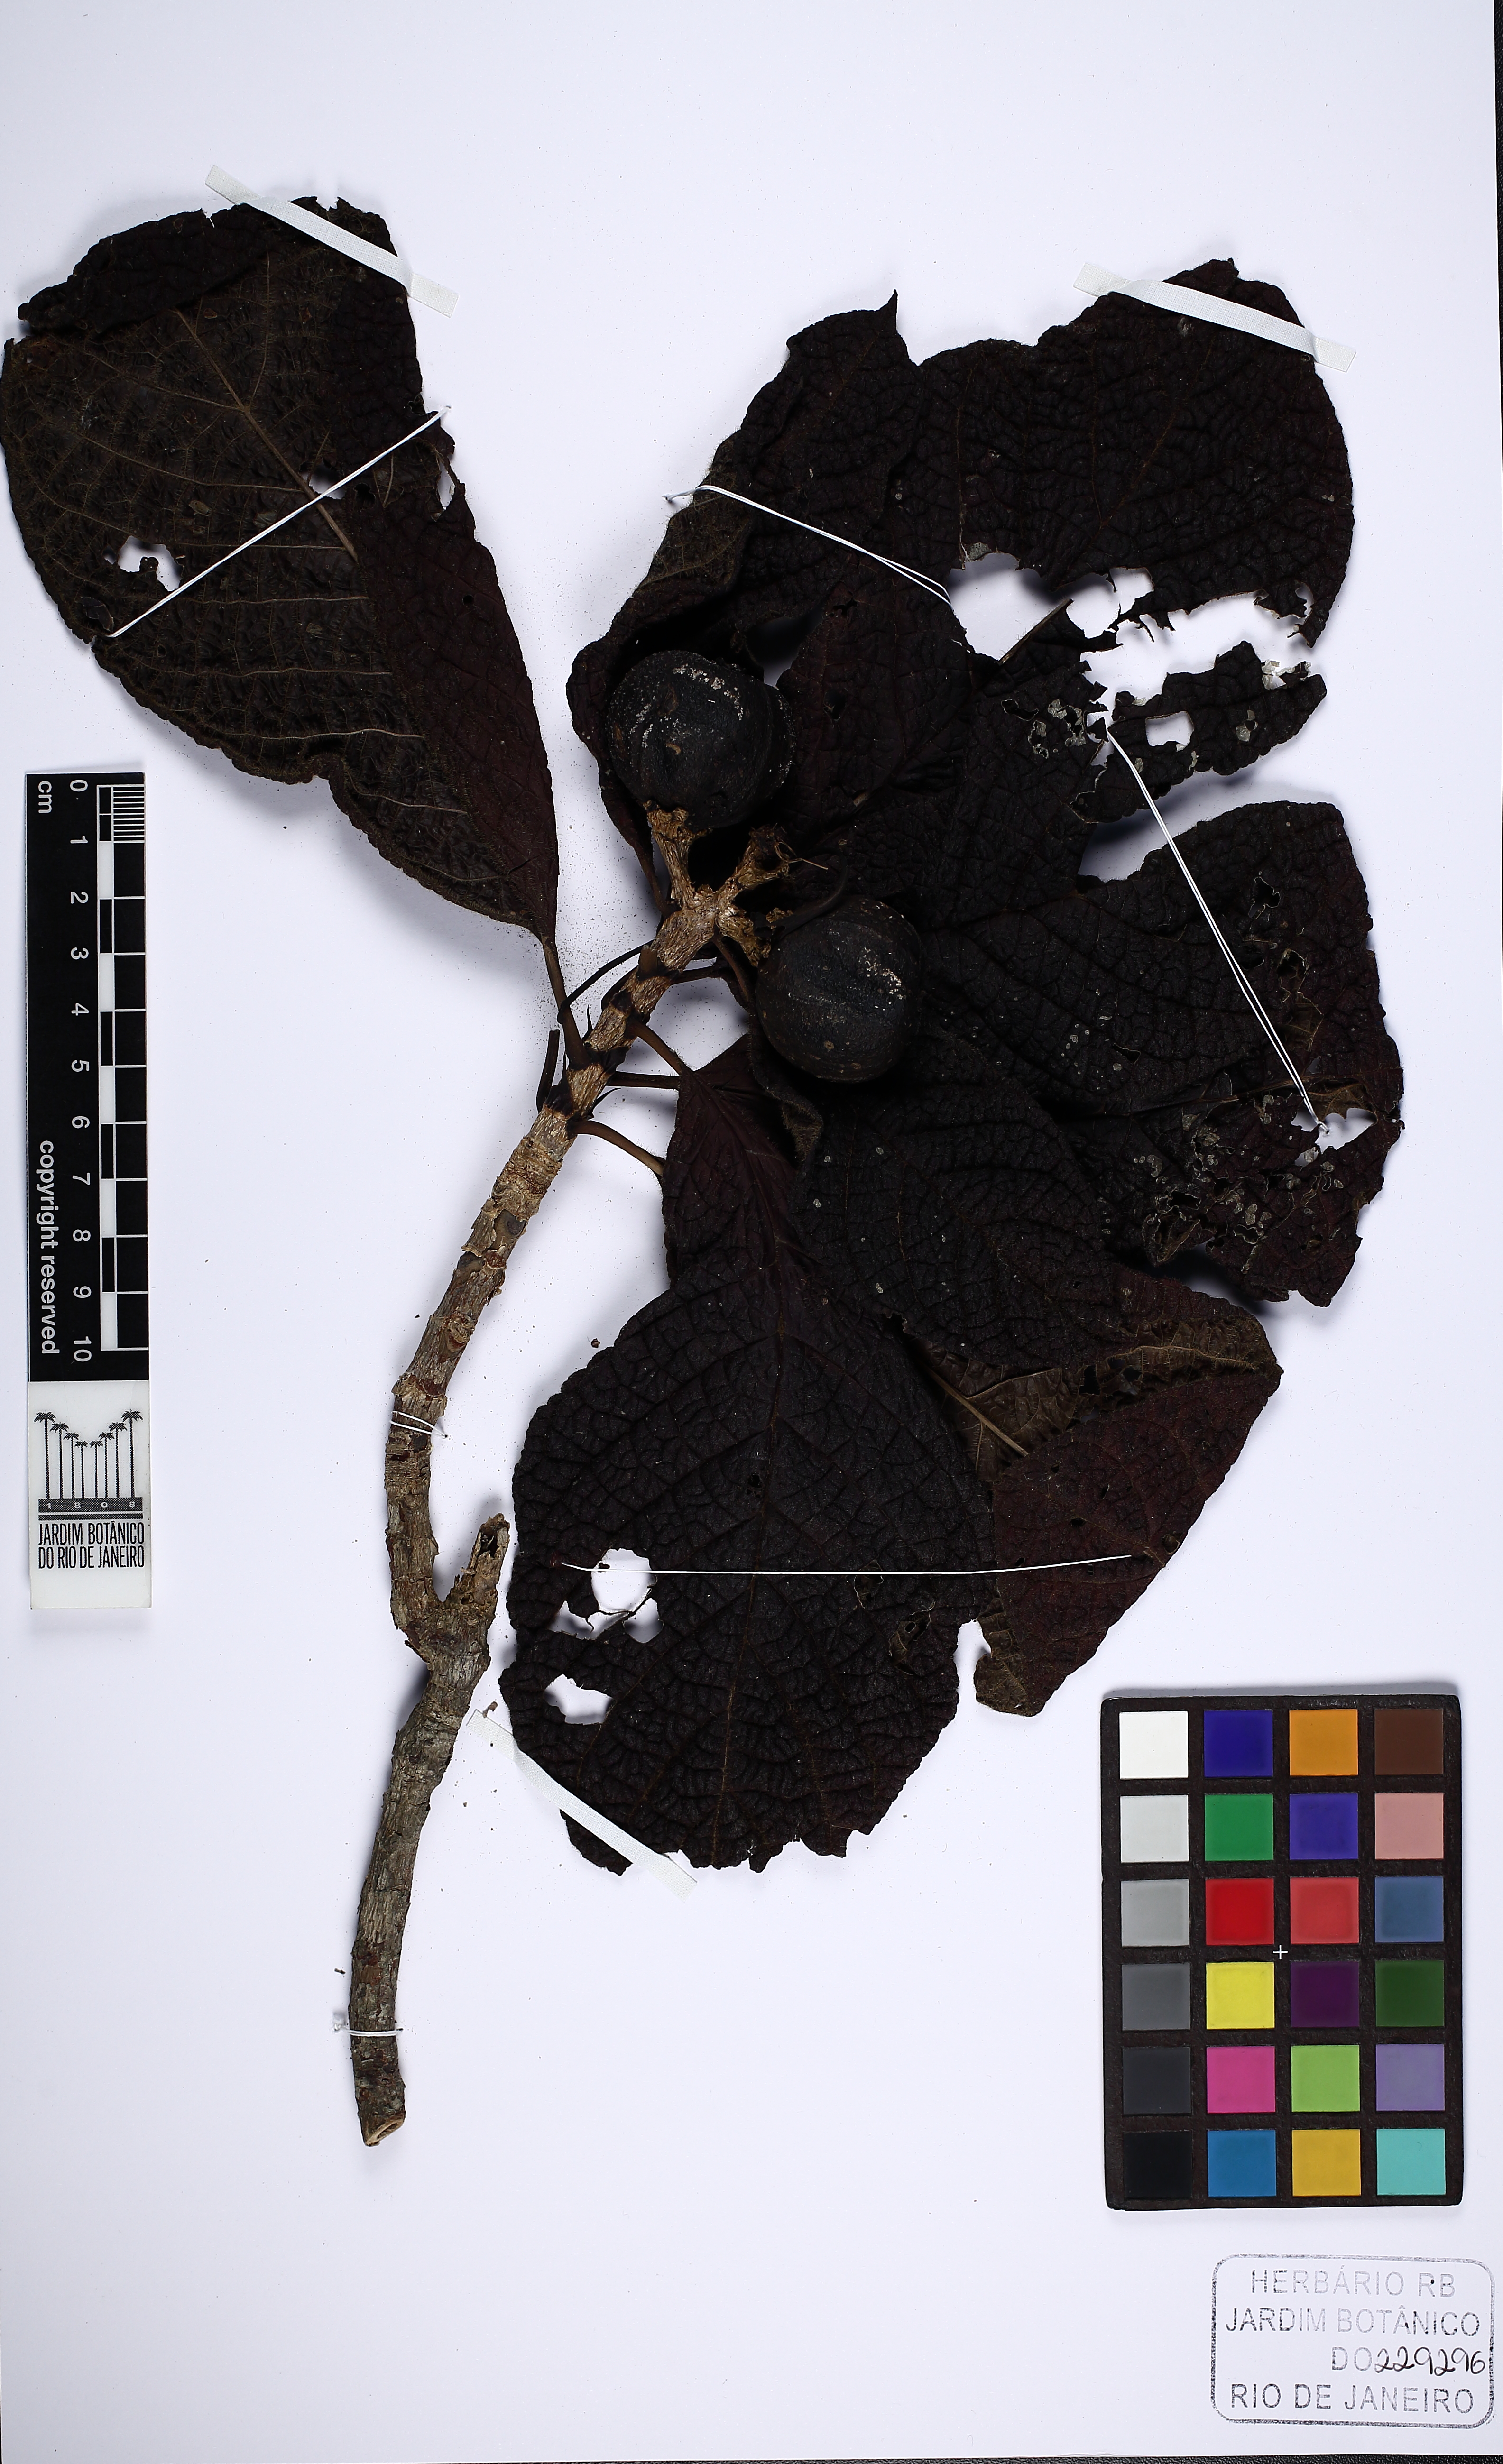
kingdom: Plantae
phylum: Tracheophyta
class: Magnoliopsida
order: Gentianales
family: Rubiaceae
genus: Tocoyena
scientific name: Tocoyena bullata
